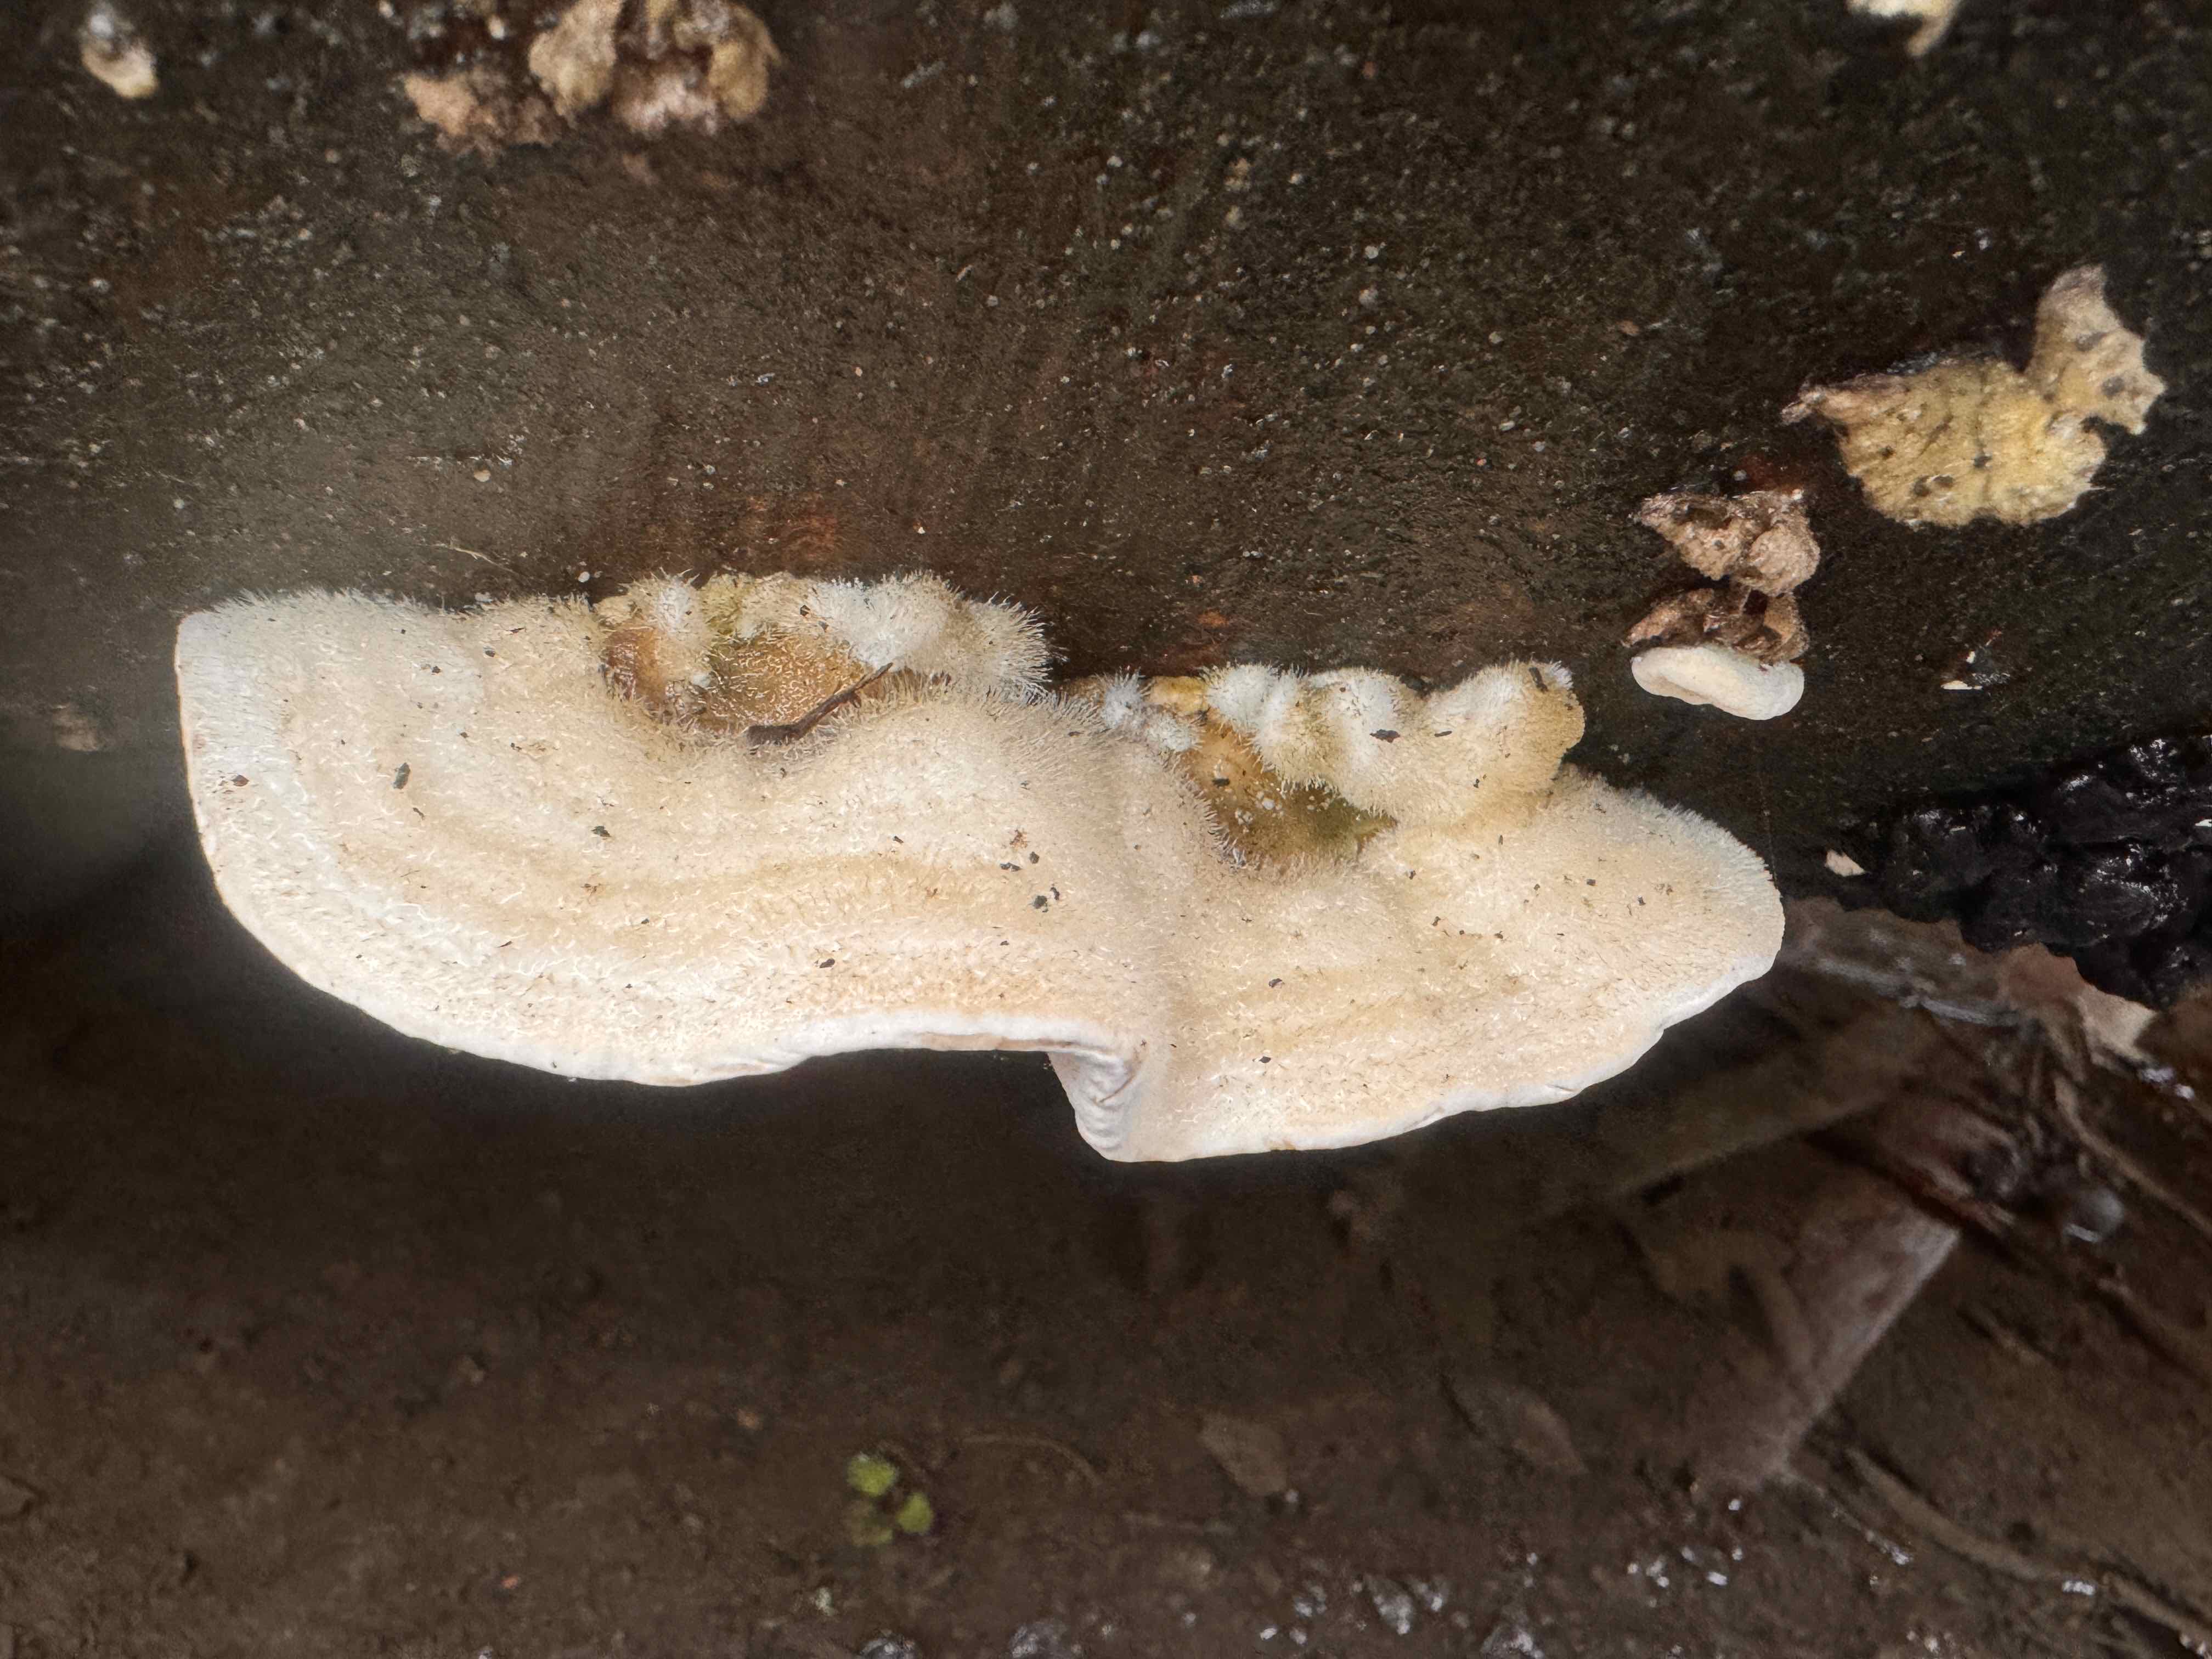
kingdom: Fungi
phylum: Basidiomycota
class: Agaricomycetes
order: Polyporales
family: Polyporaceae
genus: Trametes
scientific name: Trametes hirsuta
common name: håret læderporesvamp
